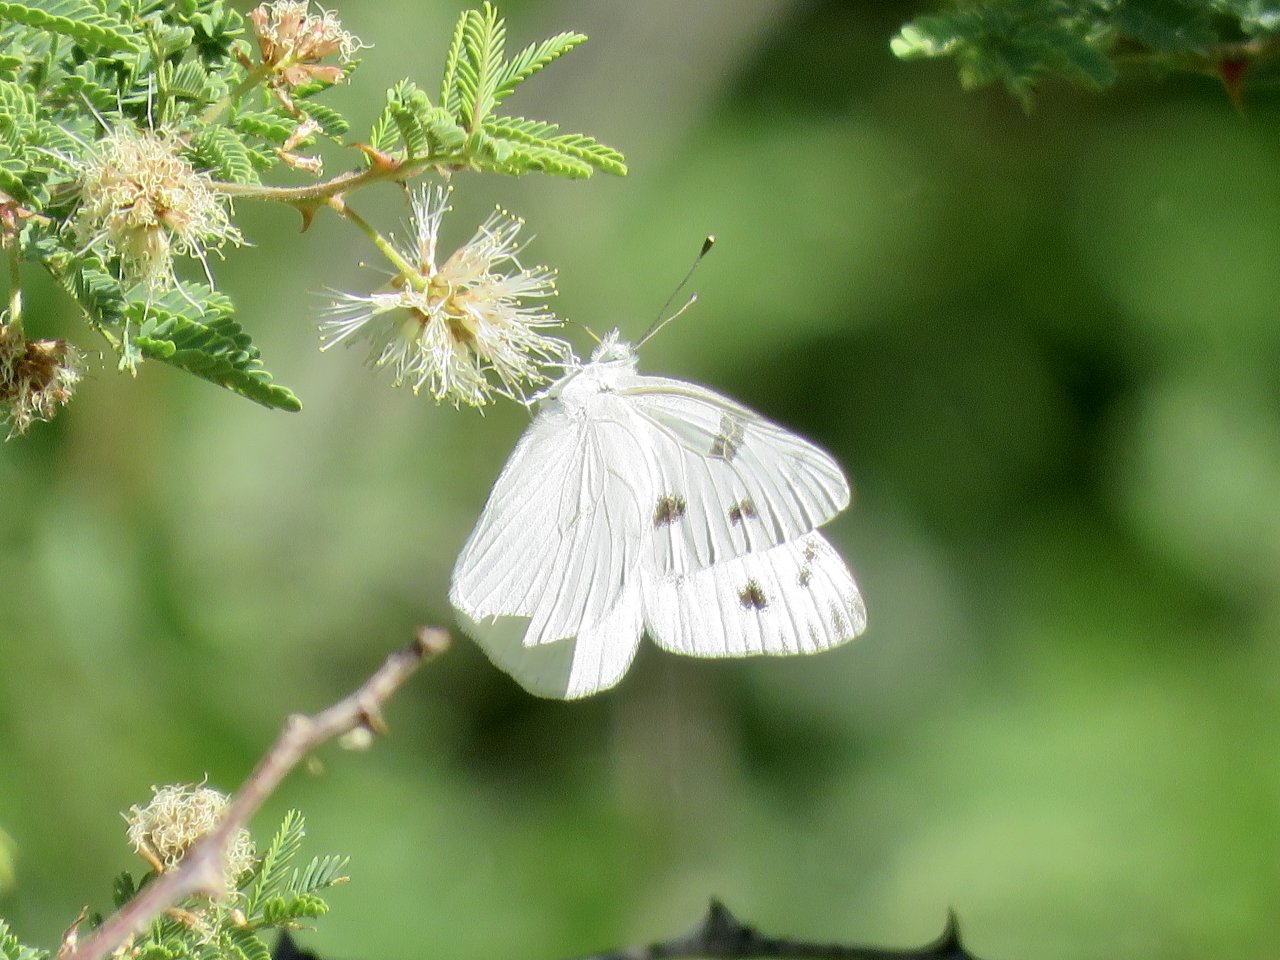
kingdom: Animalia
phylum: Arthropoda
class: Insecta
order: Lepidoptera
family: Pieridae
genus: Pontia
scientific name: Pontia protodice
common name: Checkered White
